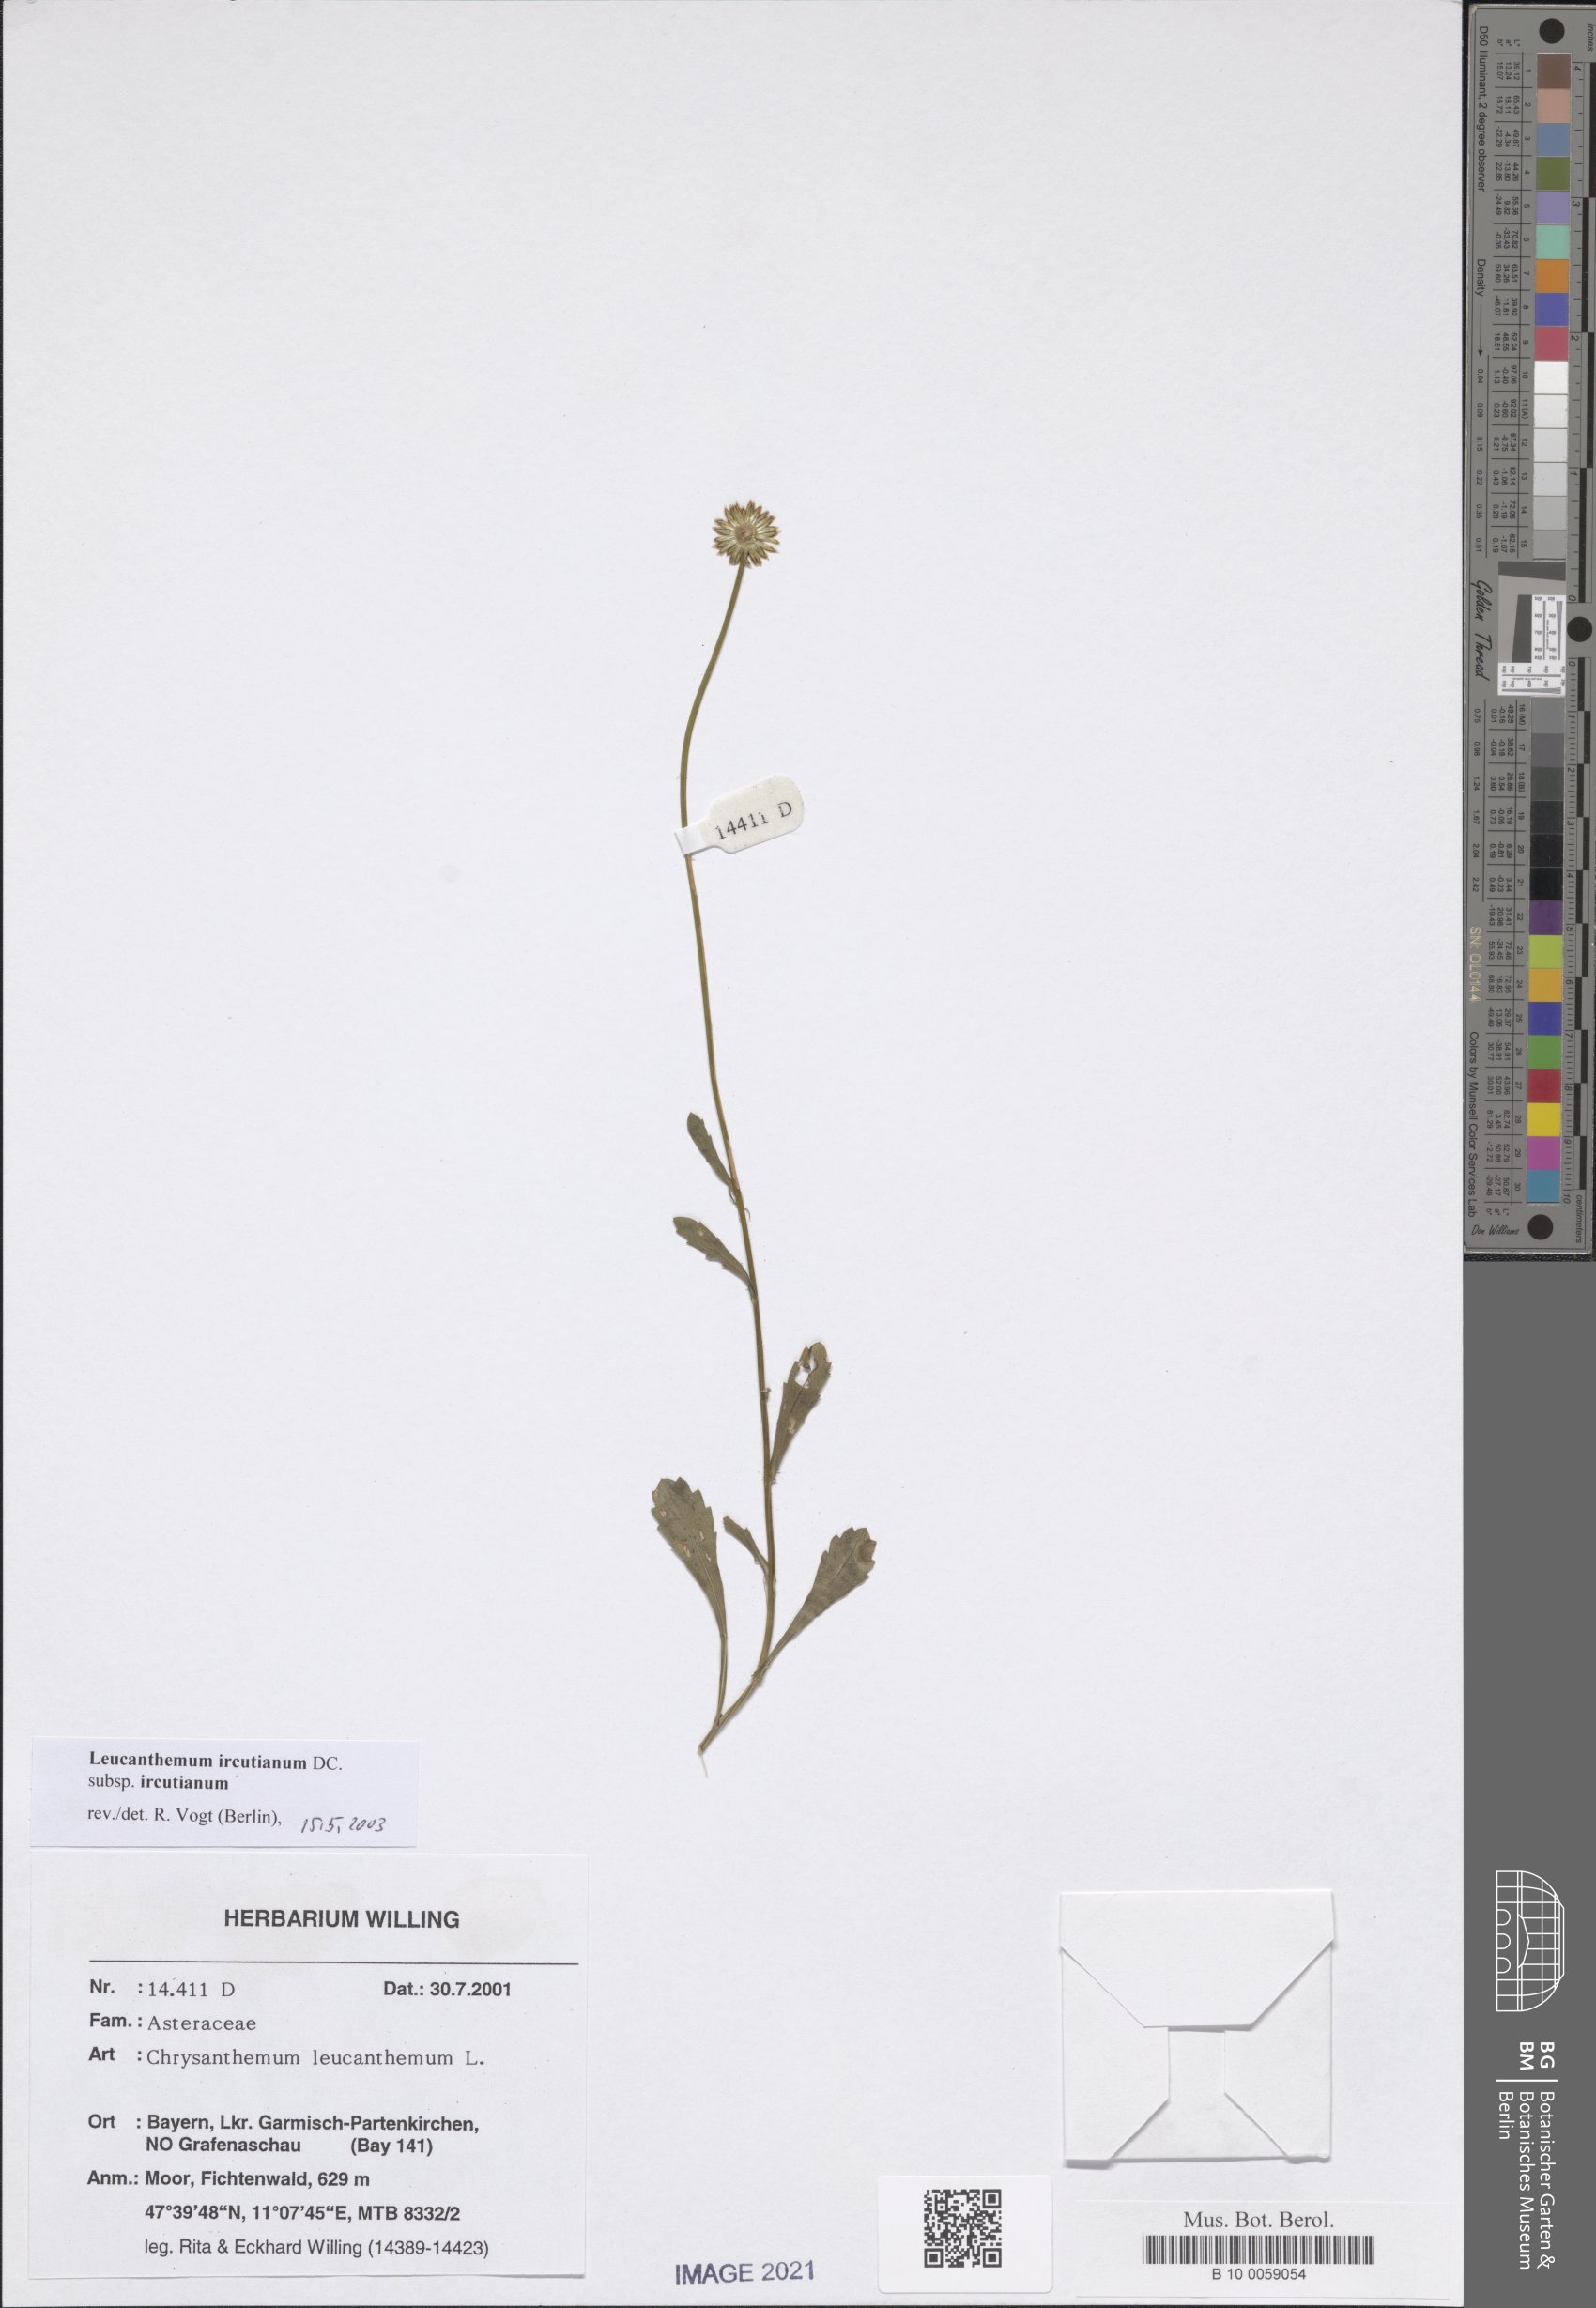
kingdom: Plantae
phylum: Tracheophyta
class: Magnoliopsida
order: Asterales
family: Asteraceae
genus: Leucanthemum
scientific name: Leucanthemum ircutianum
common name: Daisy
